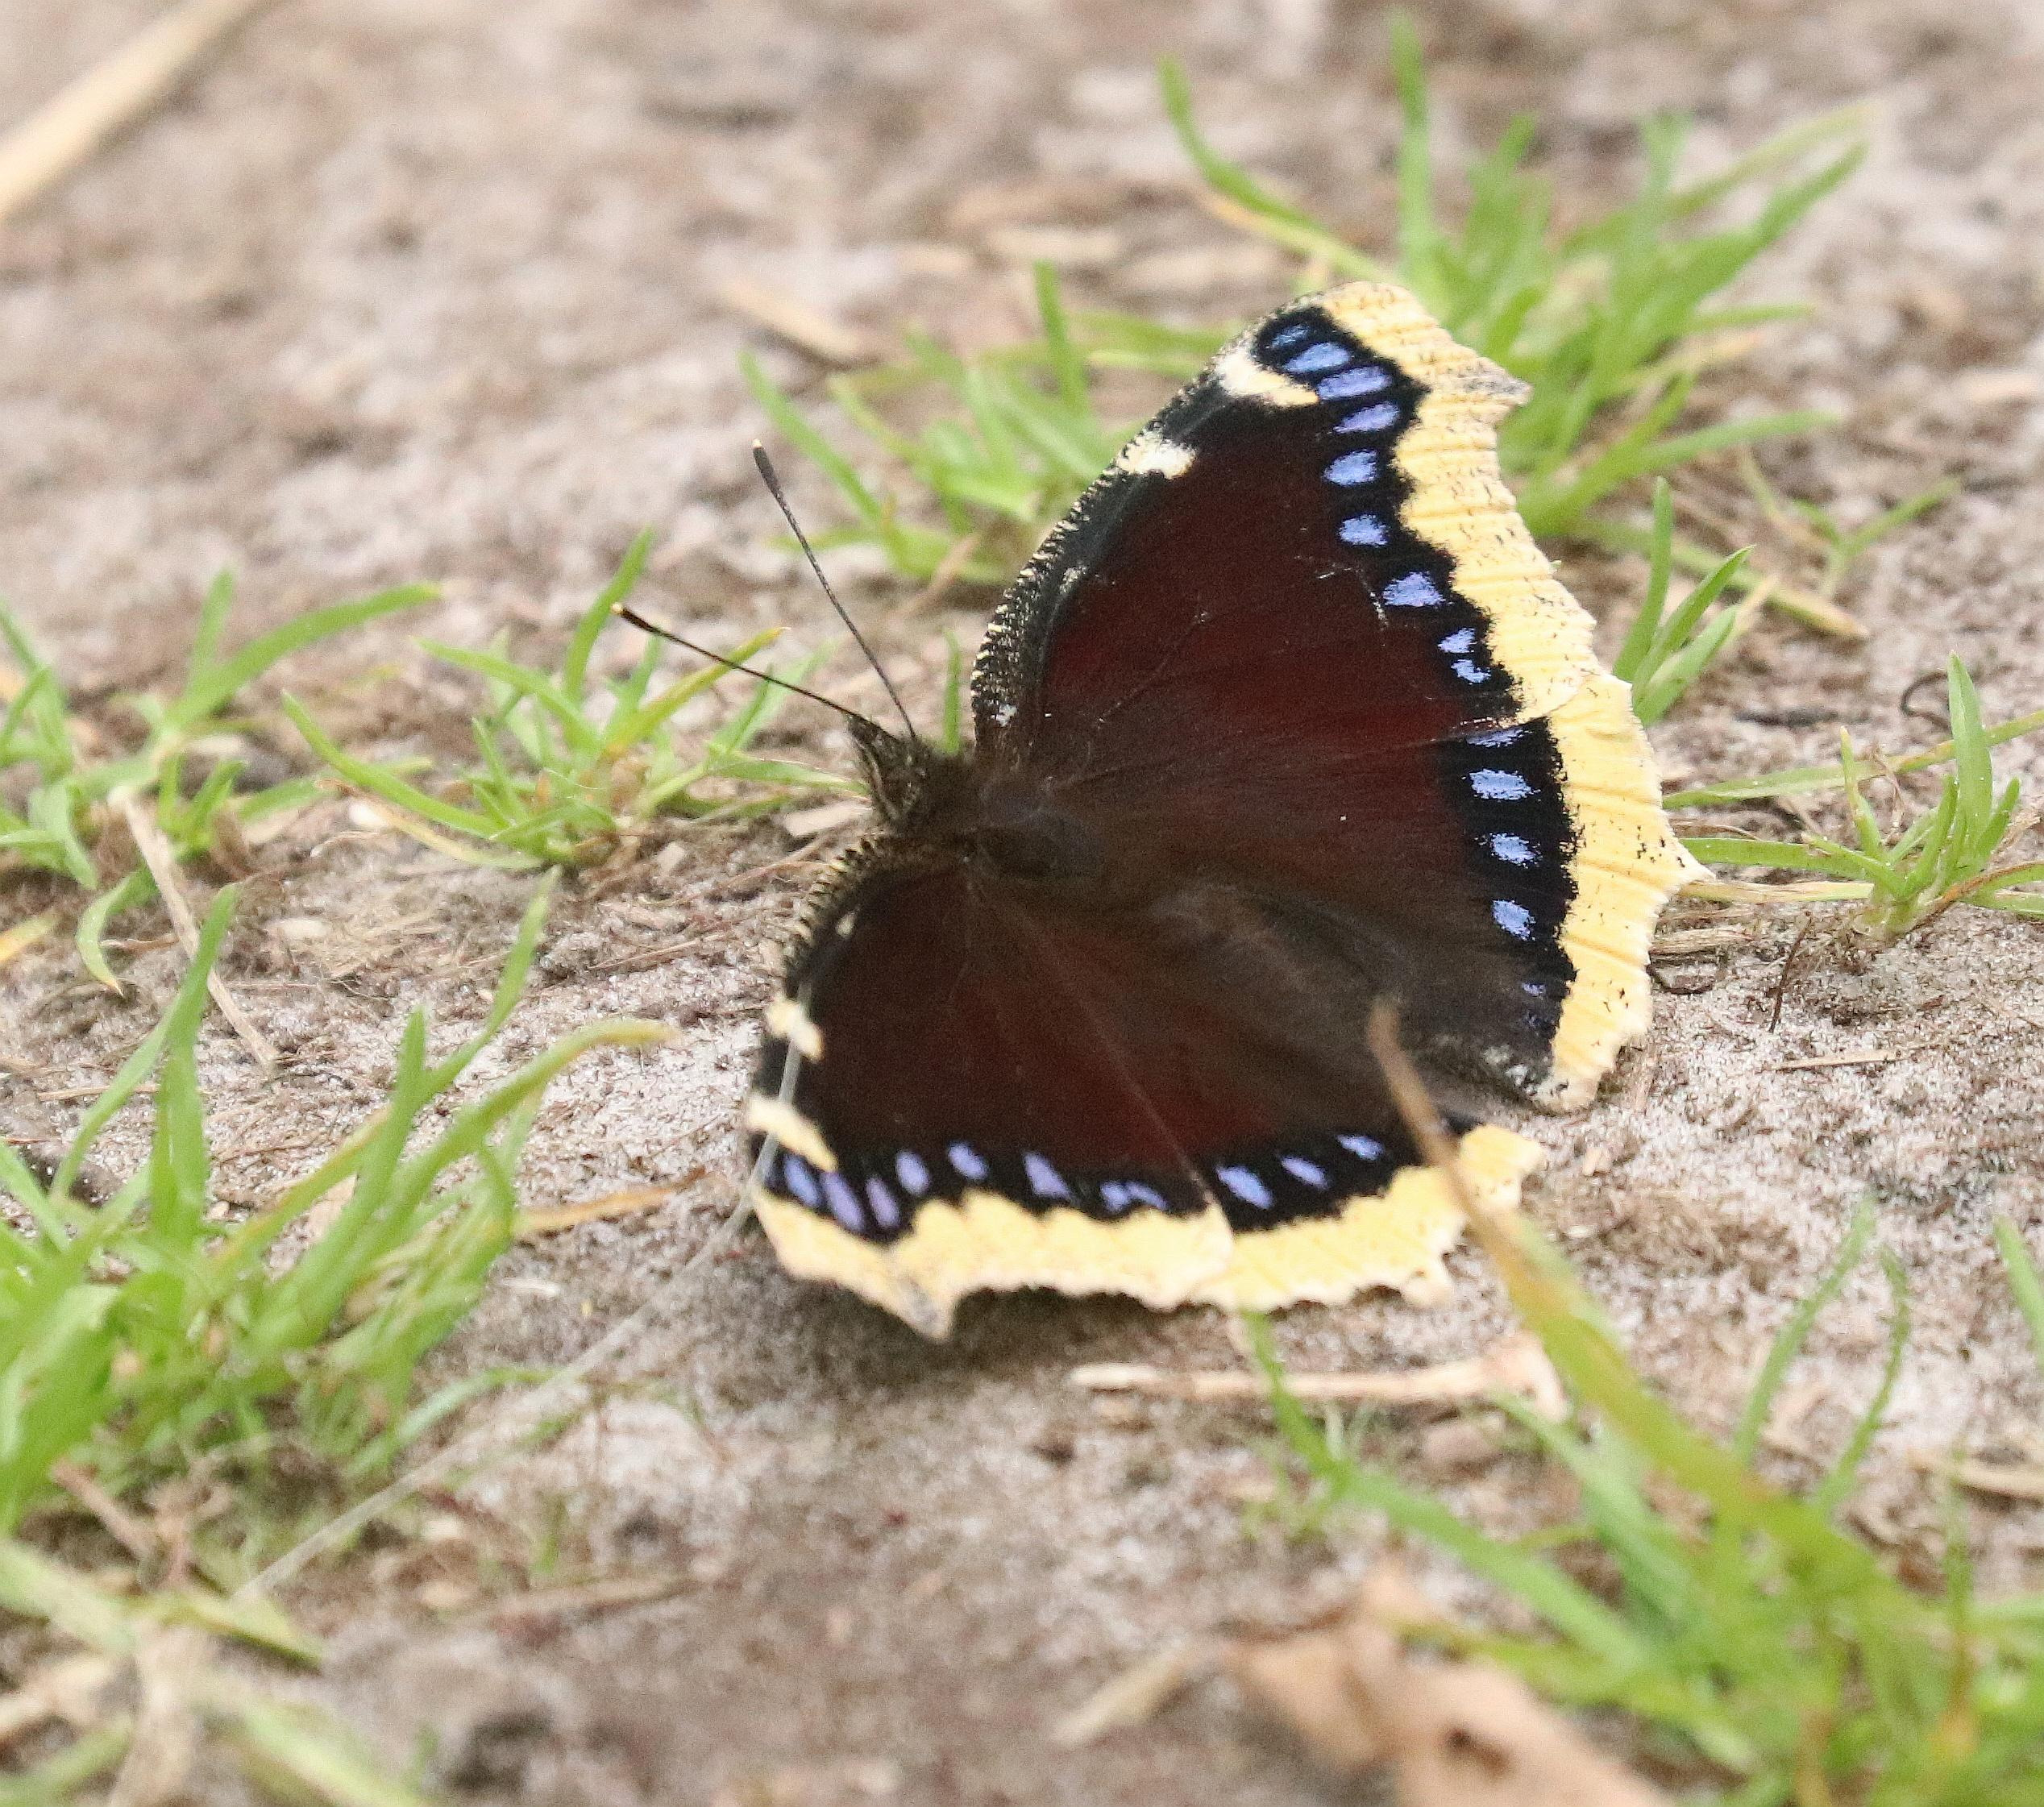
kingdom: Animalia
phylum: Arthropoda
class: Insecta
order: Lepidoptera
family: Nymphalidae
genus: Nymphalis
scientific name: Nymphalis antiopa
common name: Sørgekåbe
